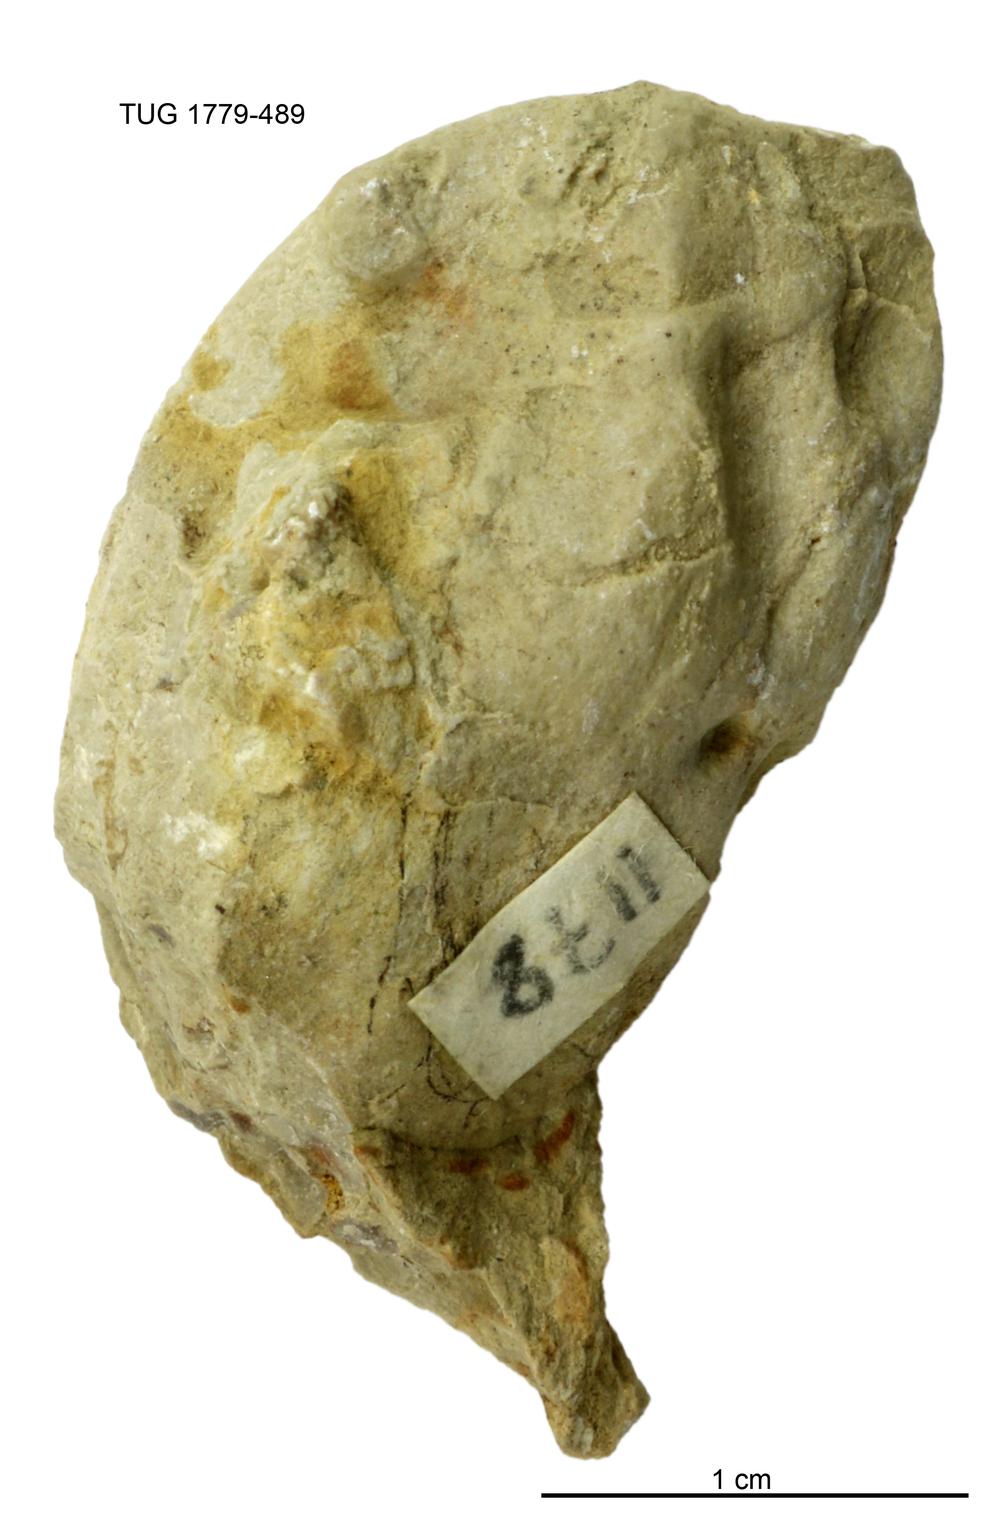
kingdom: Animalia
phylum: Mollusca
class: Bivalvia
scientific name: Bivalvia
